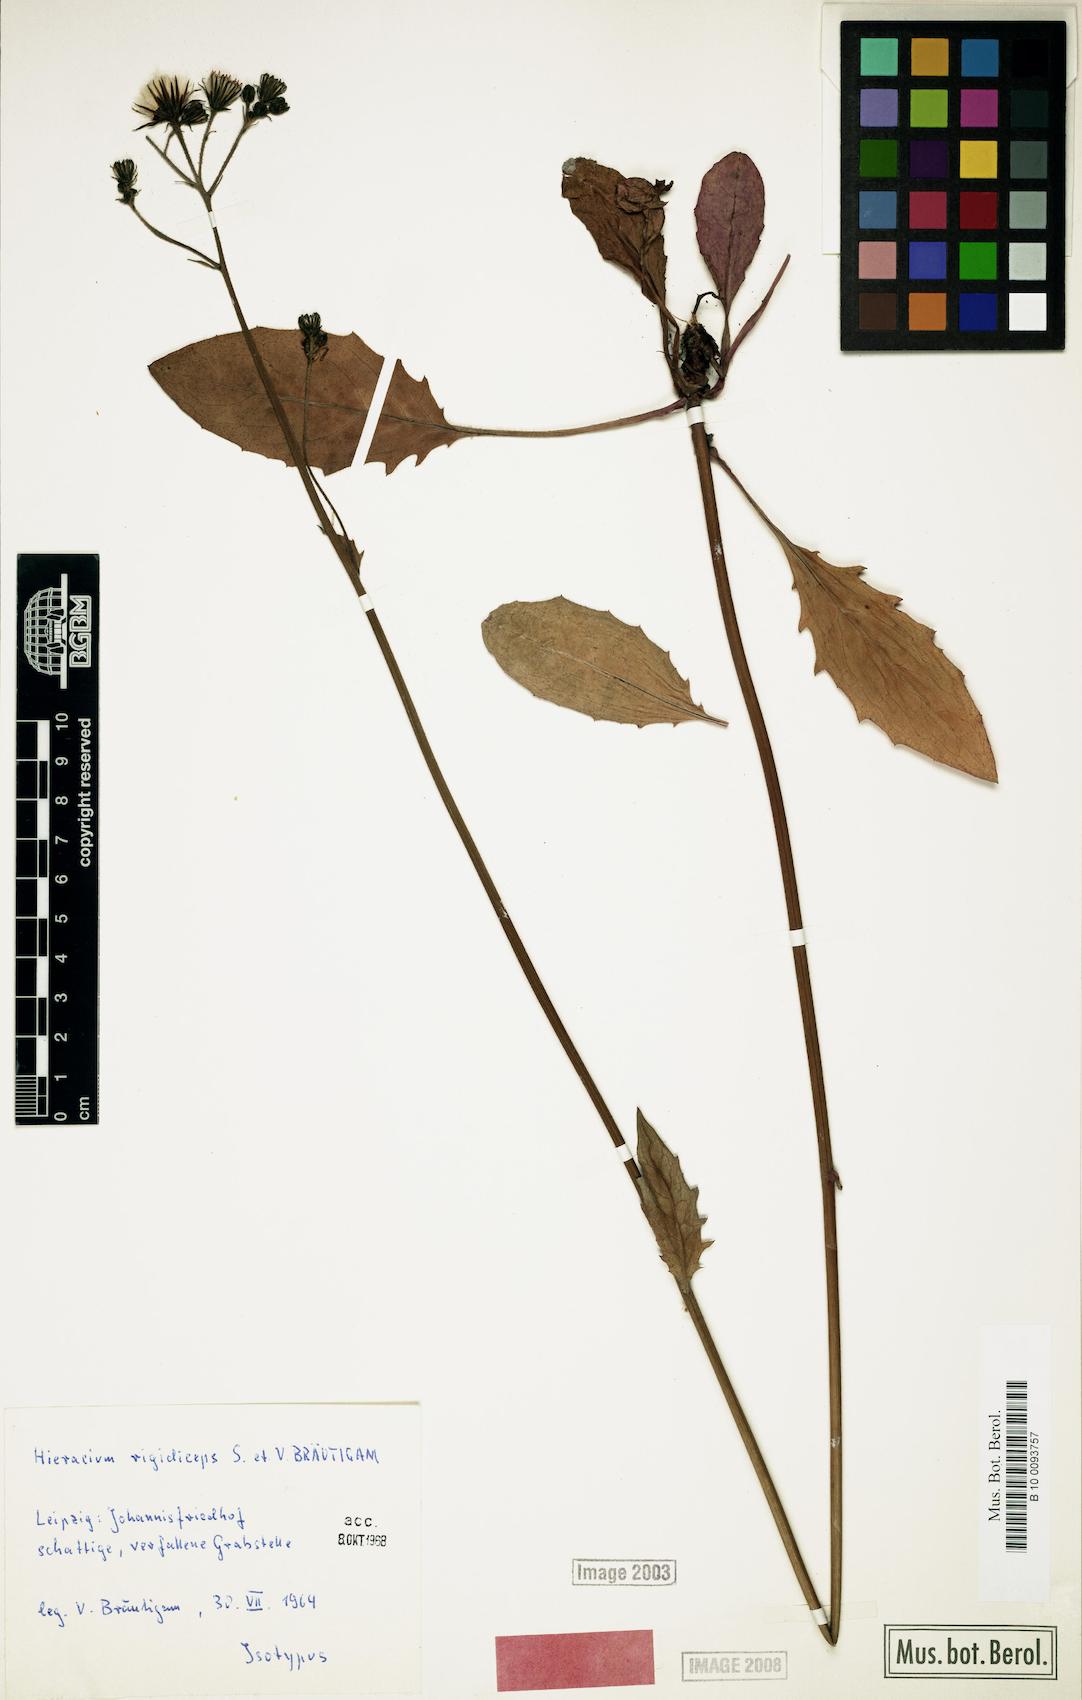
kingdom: Plantae
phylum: Tracheophyta
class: Magnoliopsida
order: Asterales
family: Asteraceae
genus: Hieracium
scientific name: Hieracium maculatum
